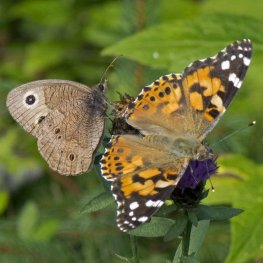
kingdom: Animalia
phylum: Arthropoda
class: Insecta
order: Lepidoptera
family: Nymphalidae
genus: Cercyonis
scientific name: Cercyonis pegala
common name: Common Wood-Nymph
